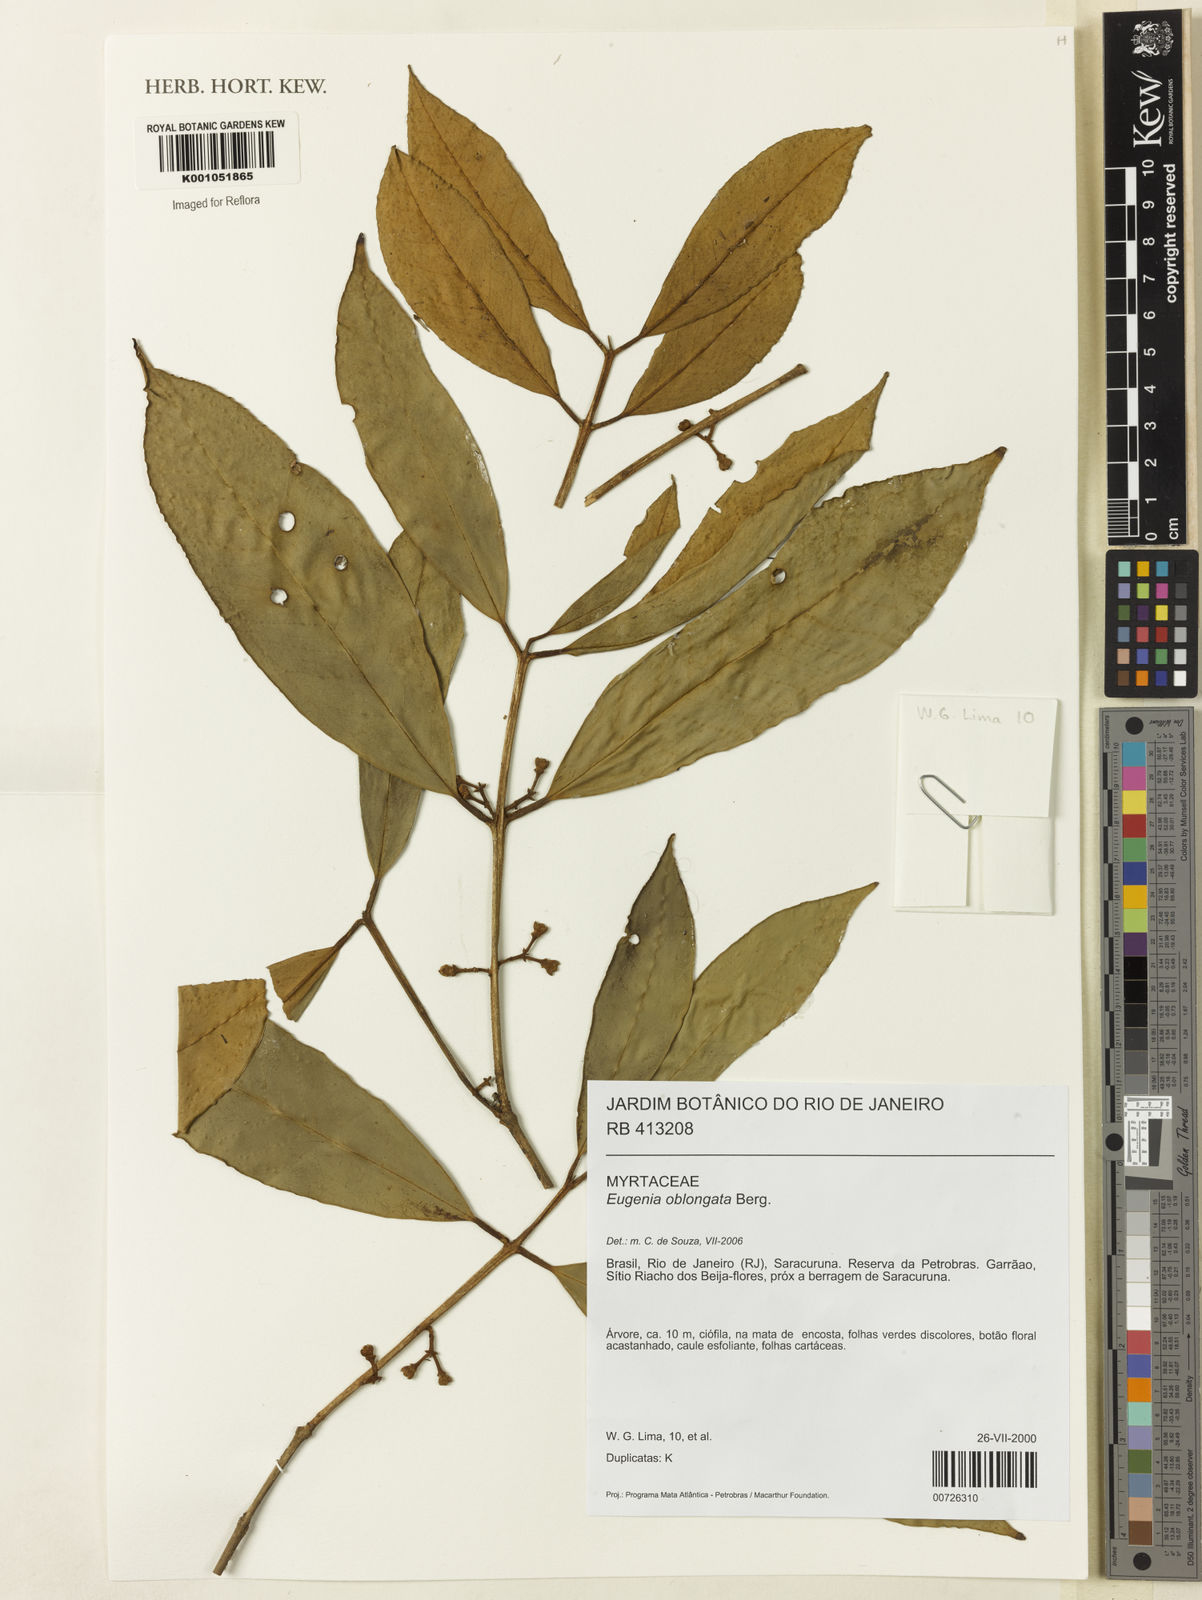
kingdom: Plantae
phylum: Tracheophyta
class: Magnoliopsida
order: Myrtales
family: Myrtaceae
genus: Eugenia
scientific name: Eugenia oblongata
